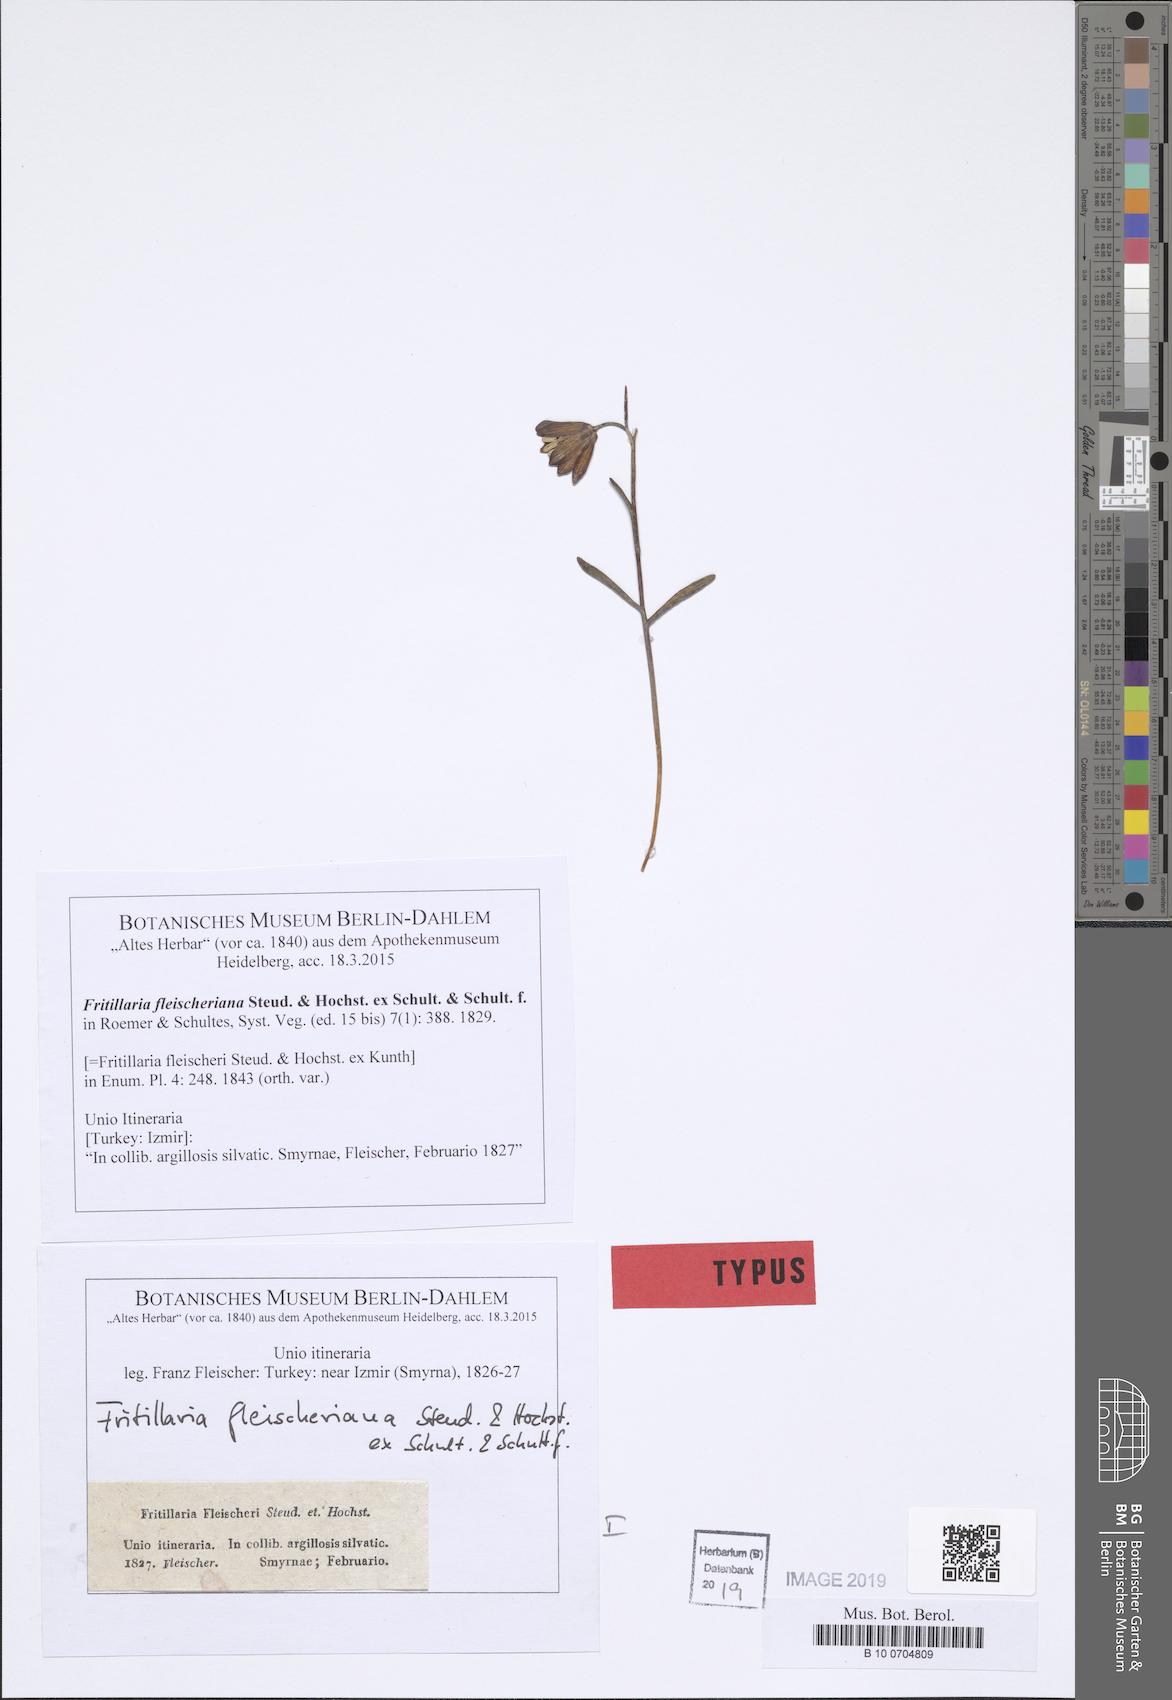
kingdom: Plantae
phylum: Tracheophyta
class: Liliopsida
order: Liliales
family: Liliaceae
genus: Fritillaria
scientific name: Fritillaria fleischeriana
